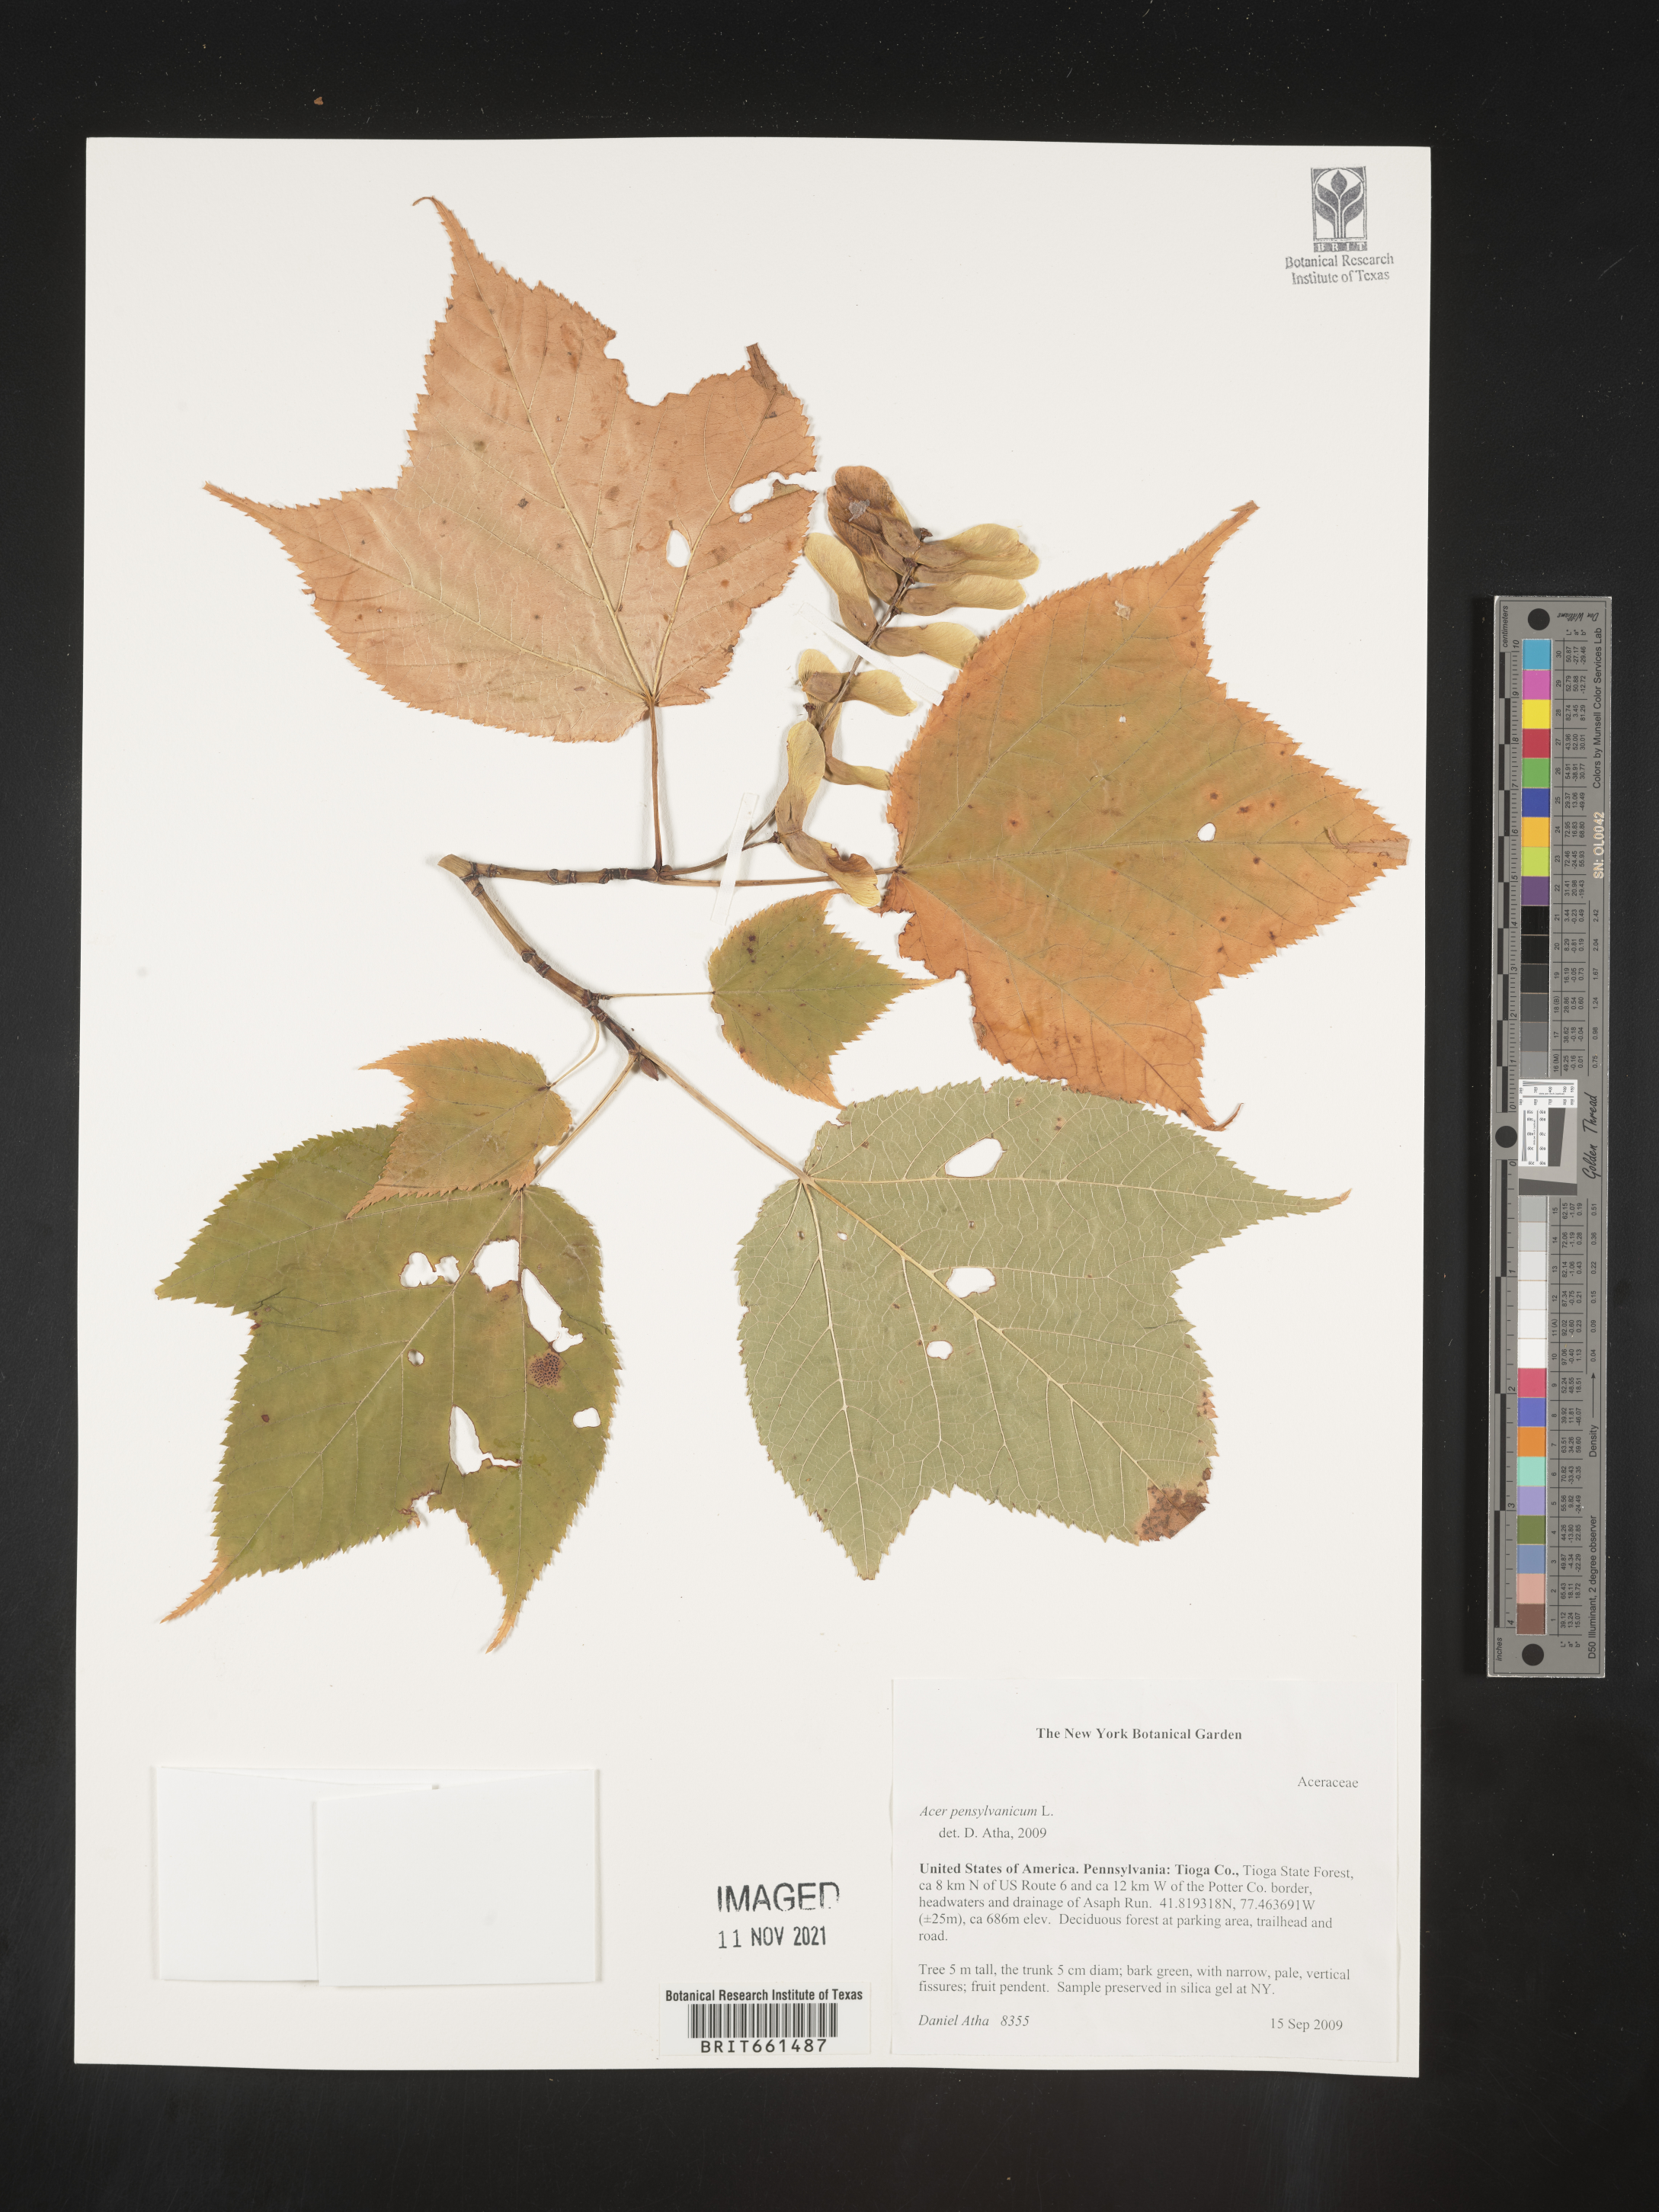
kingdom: Plantae
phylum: Tracheophyta
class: Magnoliopsida
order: Sapindales
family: Sapindaceae
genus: Acer
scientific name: Acer pensylvanicum
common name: Moosewood
